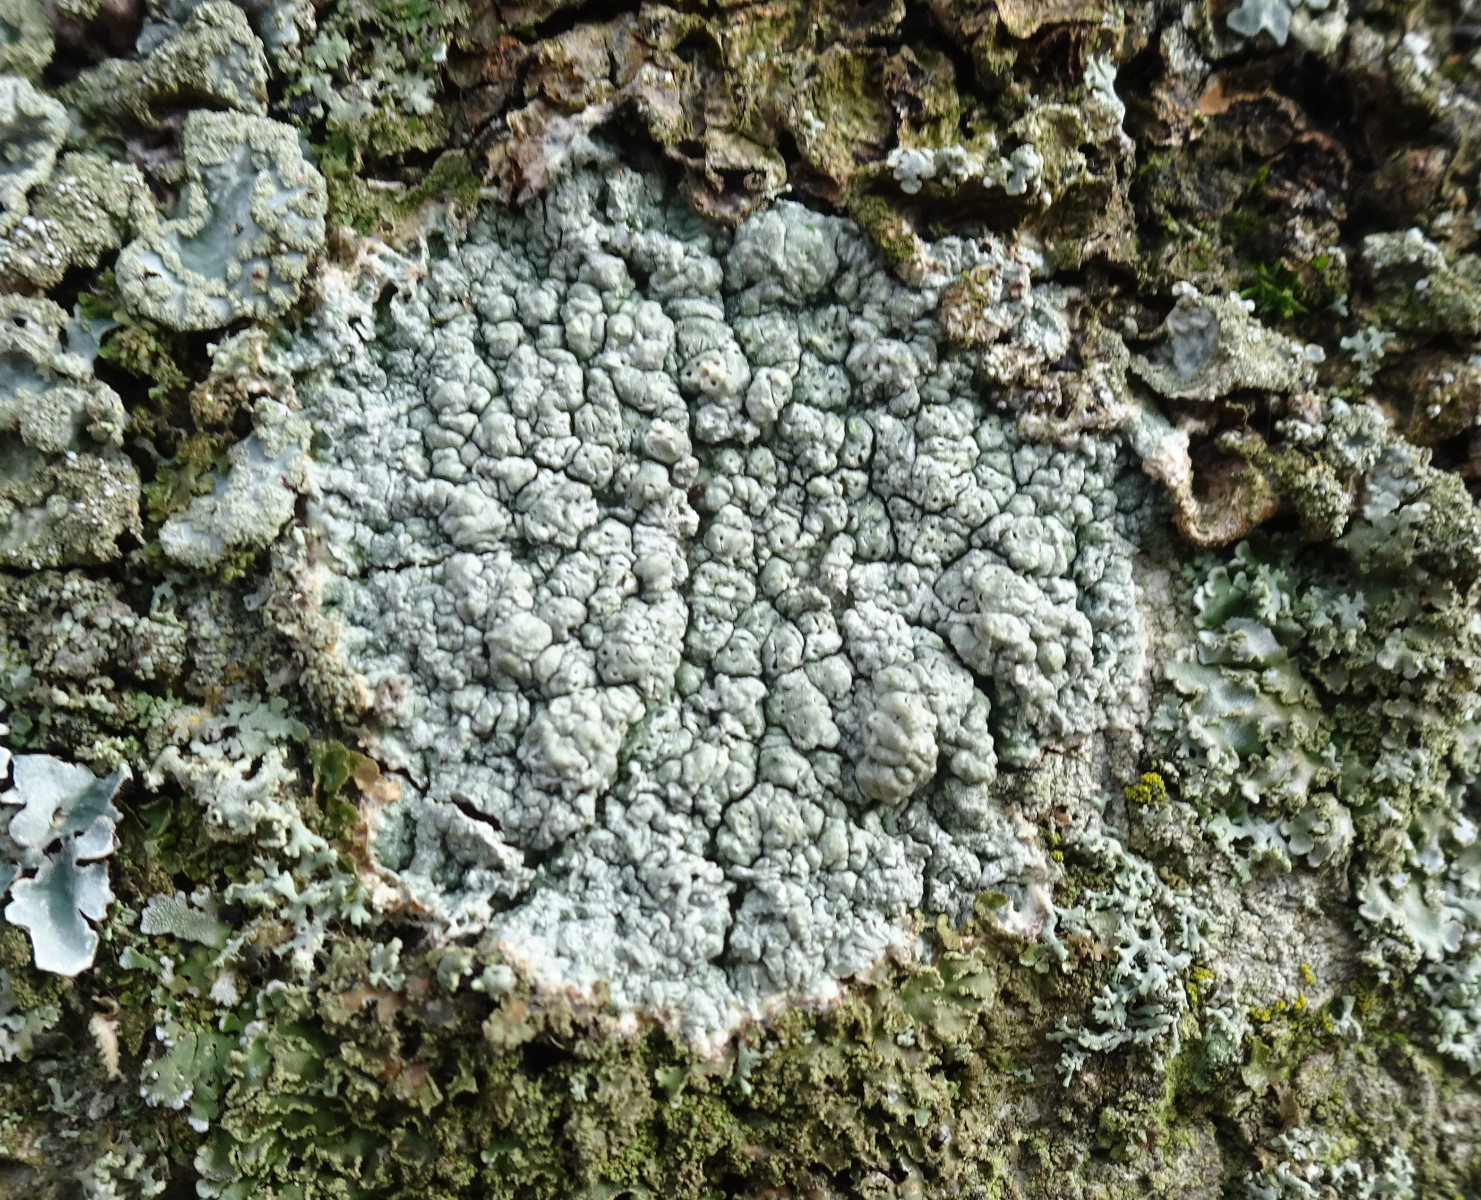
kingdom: Fungi
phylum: Ascomycota
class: Lecanoromycetes
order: Pertusariales
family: Pertusariaceae
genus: Pertusaria
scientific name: Pertusaria pertusa
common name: almindelig prikvortelav
